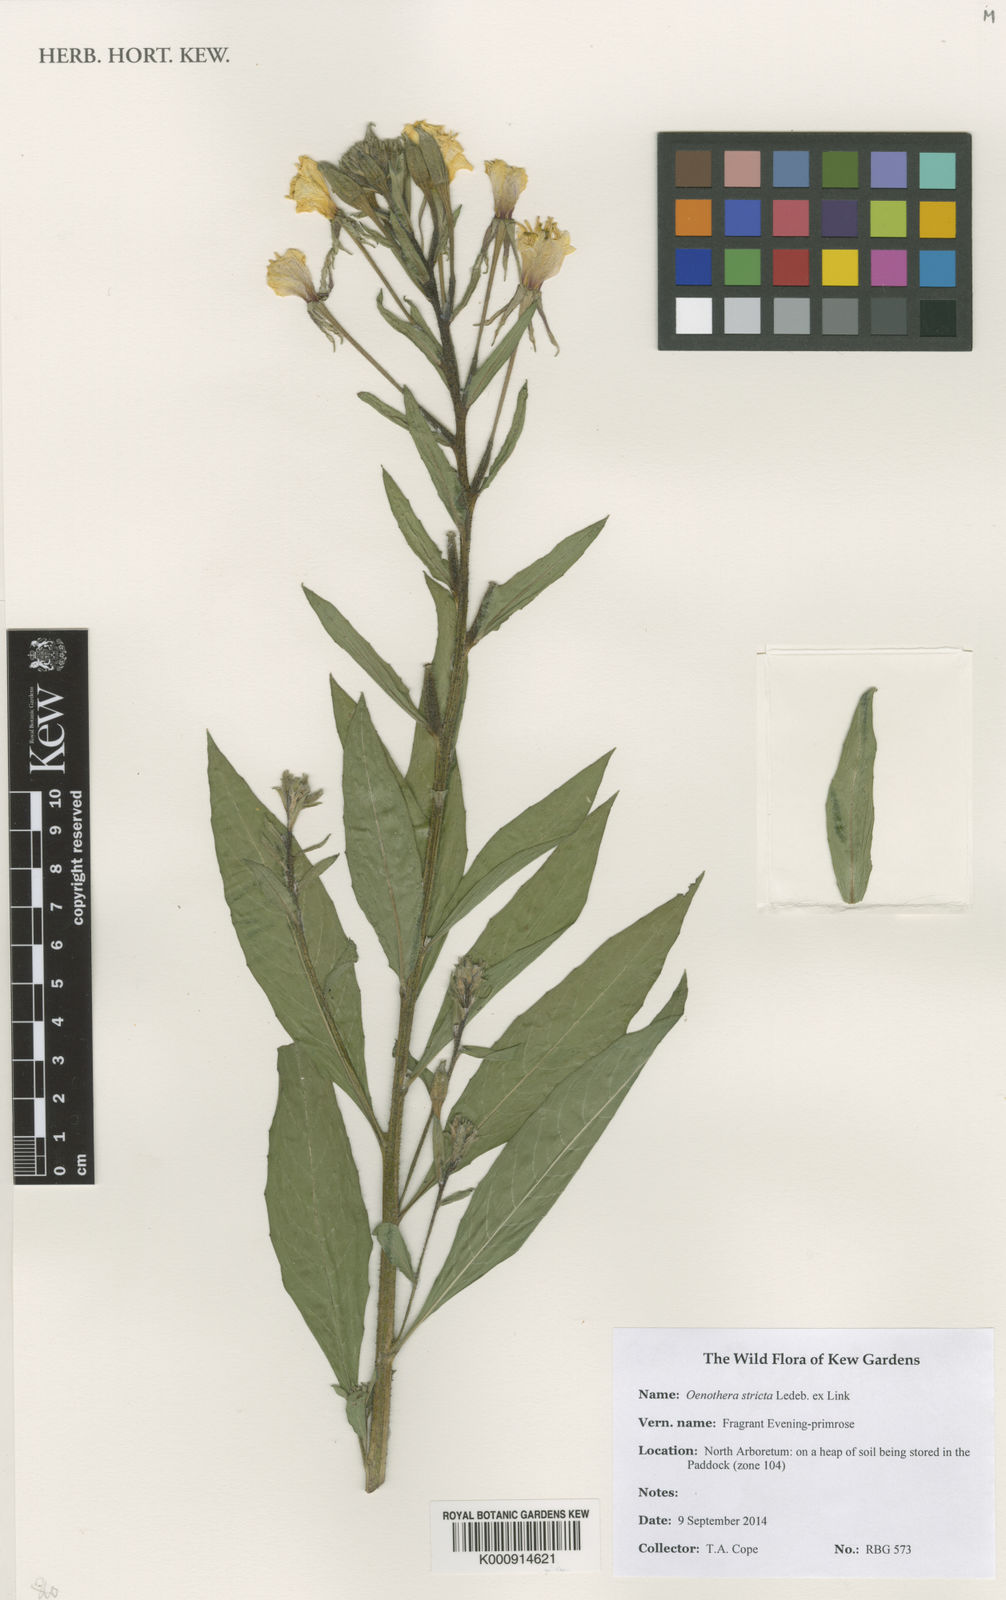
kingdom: Plantae
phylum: Tracheophyta
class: Magnoliopsida
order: Myrtales
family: Onagraceae
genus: Oenothera
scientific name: Oenothera
